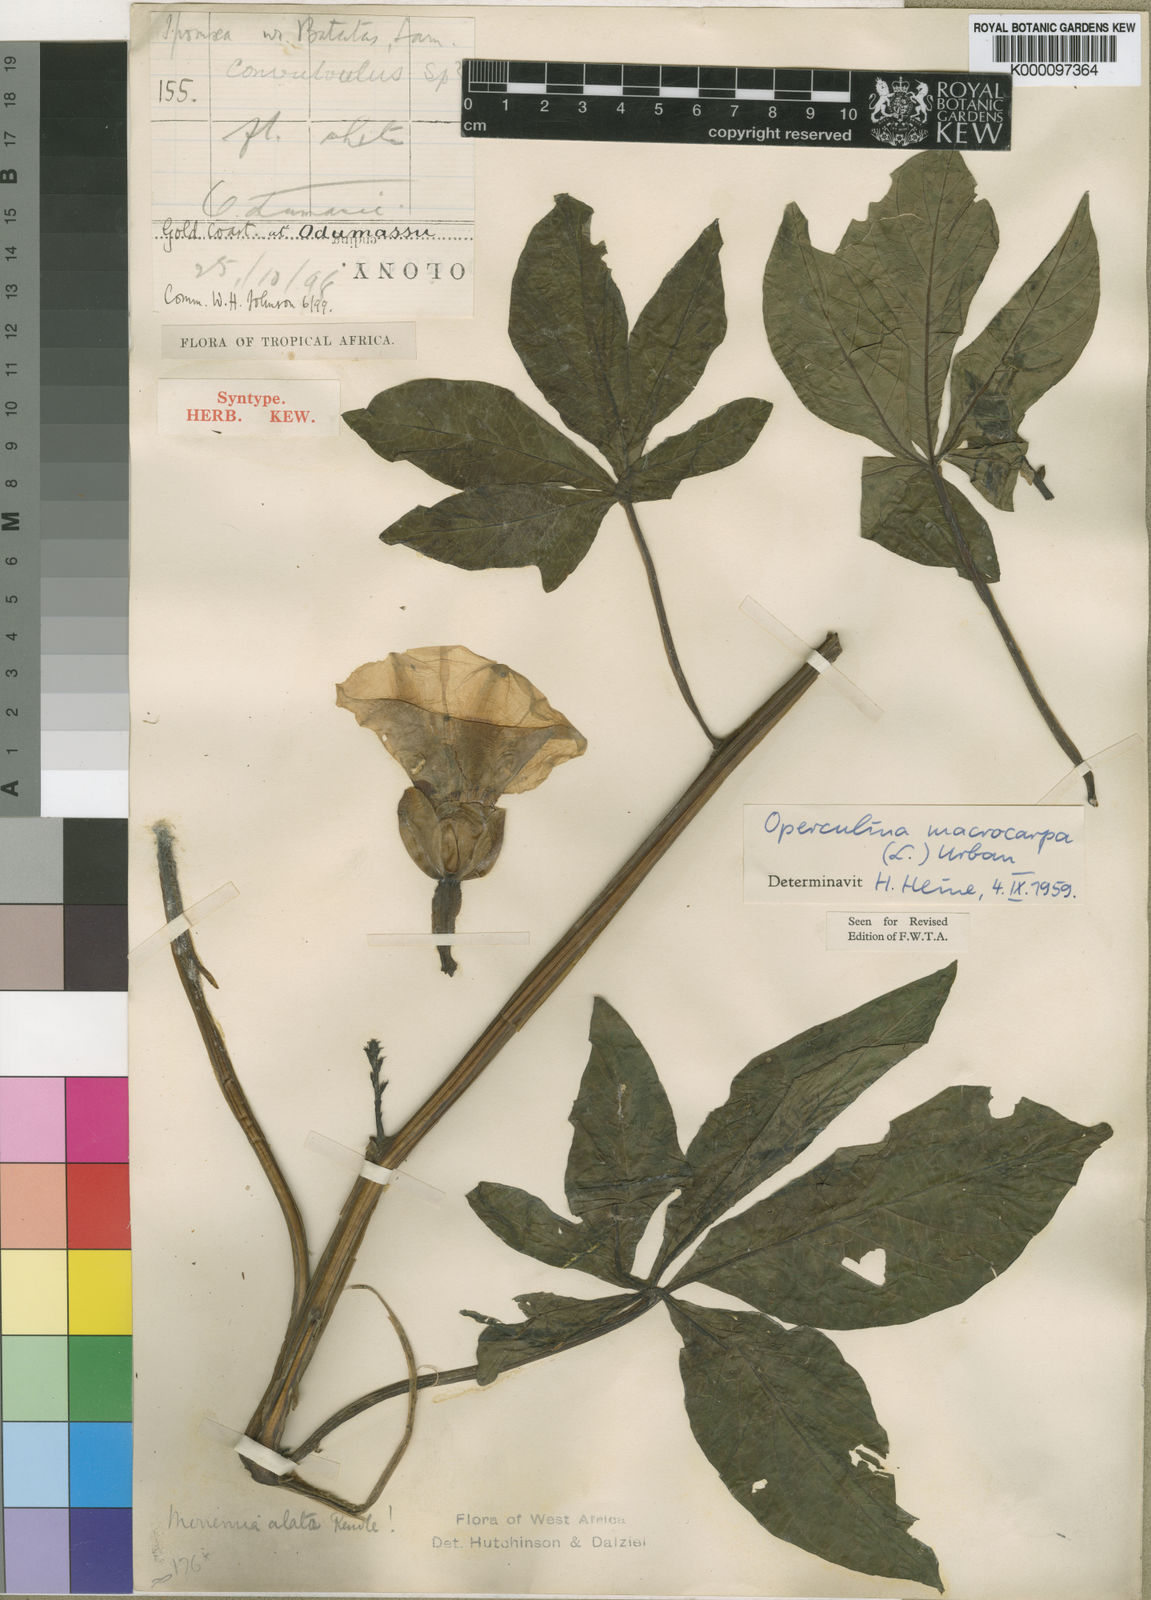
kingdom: Plantae
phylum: Tracheophyta
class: Magnoliopsida
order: Solanales
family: Convolvulaceae
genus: Operculina
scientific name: Operculina macrocarpa
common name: Brazilian jalap
